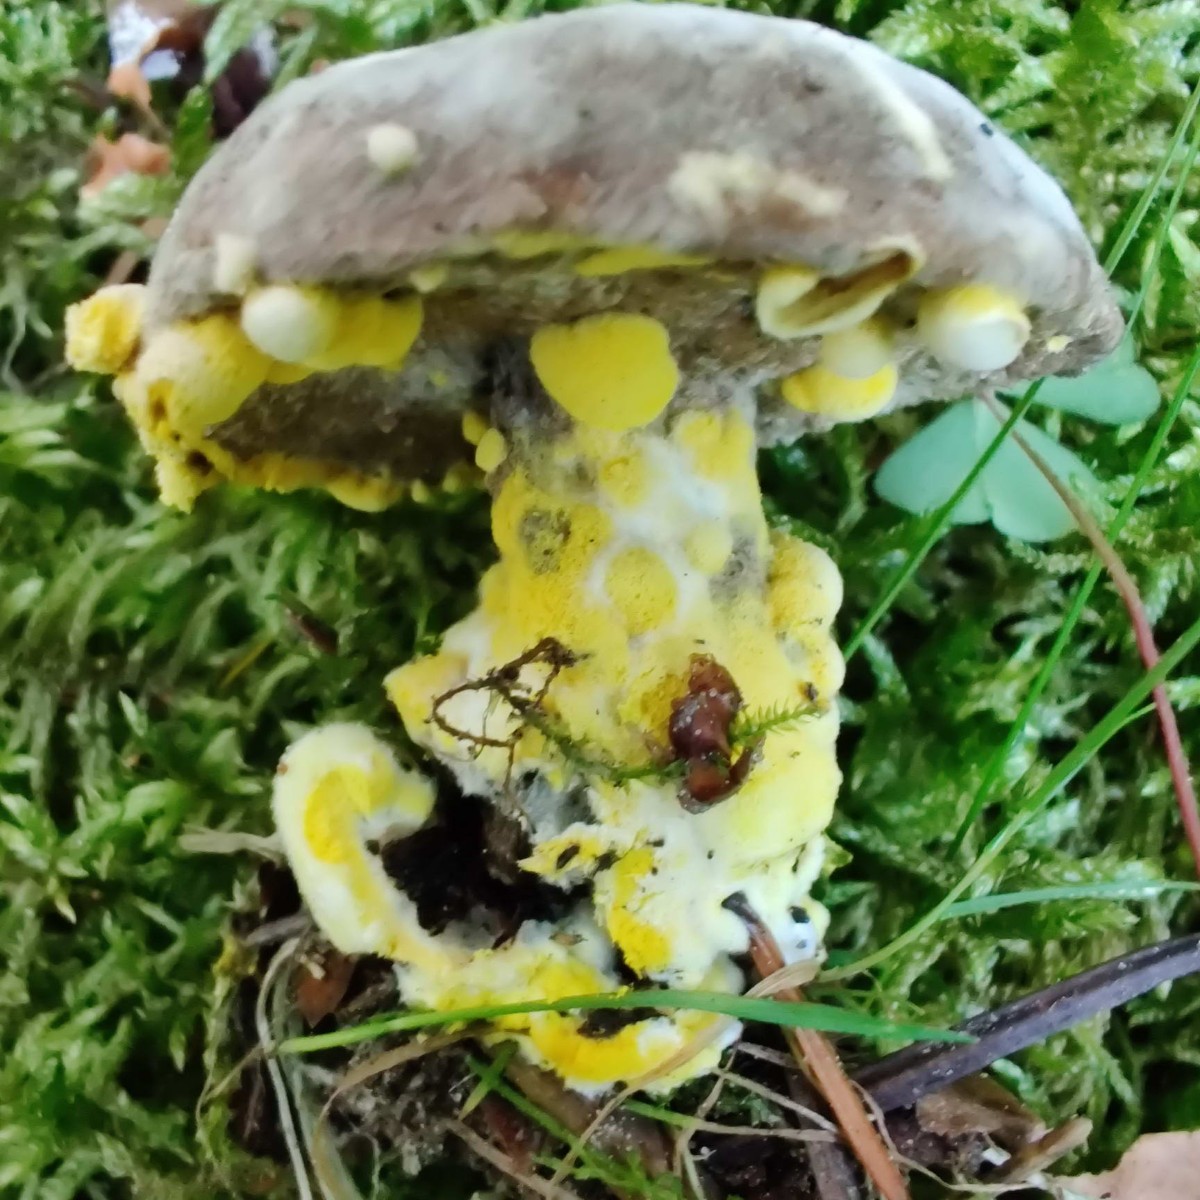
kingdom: Fungi
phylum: Ascomycota
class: Sordariomycetes
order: Hypocreales
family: Hypocreaceae
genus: Hypomyces
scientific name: Hypomyces microspermus
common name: dværgrørhat-snylteskorpe
